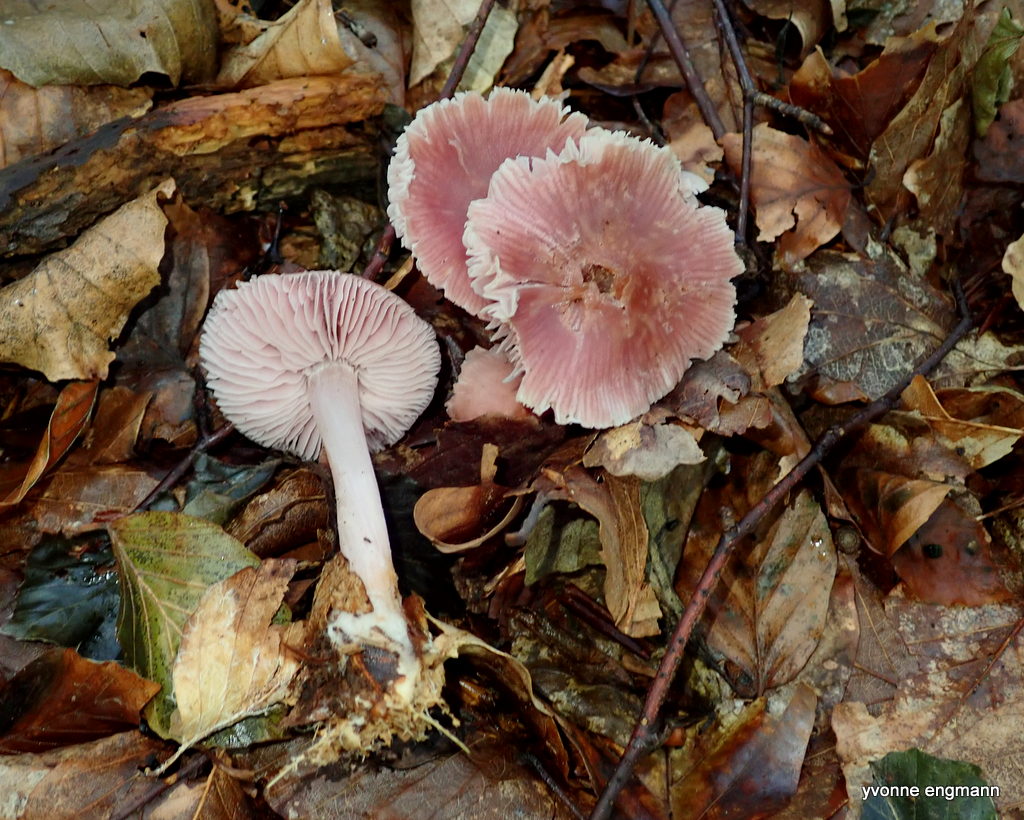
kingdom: Fungi
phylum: Basidiomycota
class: Agaricomycetes
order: Agaricales
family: Mycenaceae
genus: Mycena
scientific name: Mycena rosea
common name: rosa huesvamp
